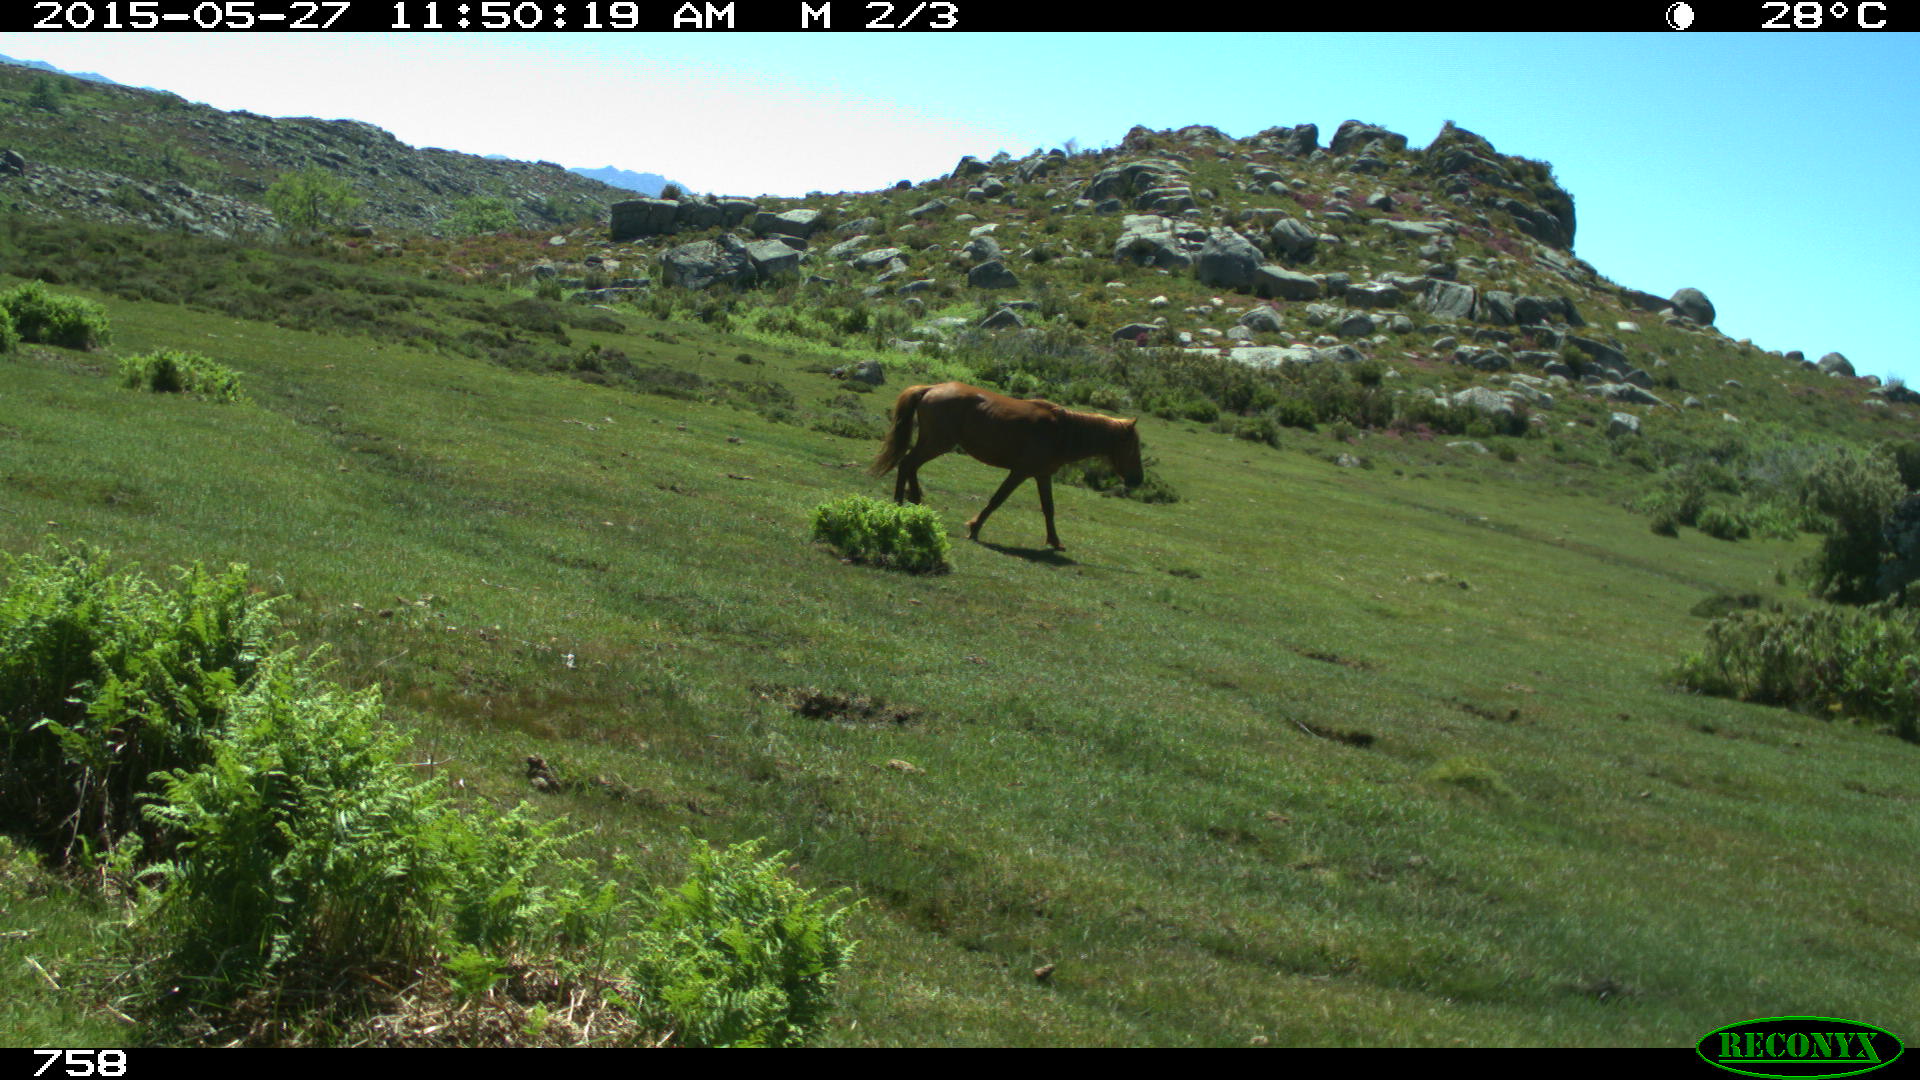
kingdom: Animalia
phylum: Chordata
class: Mammalia
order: Perissodactyla
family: Equidae
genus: Equus
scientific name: Equus caballus
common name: Horse
